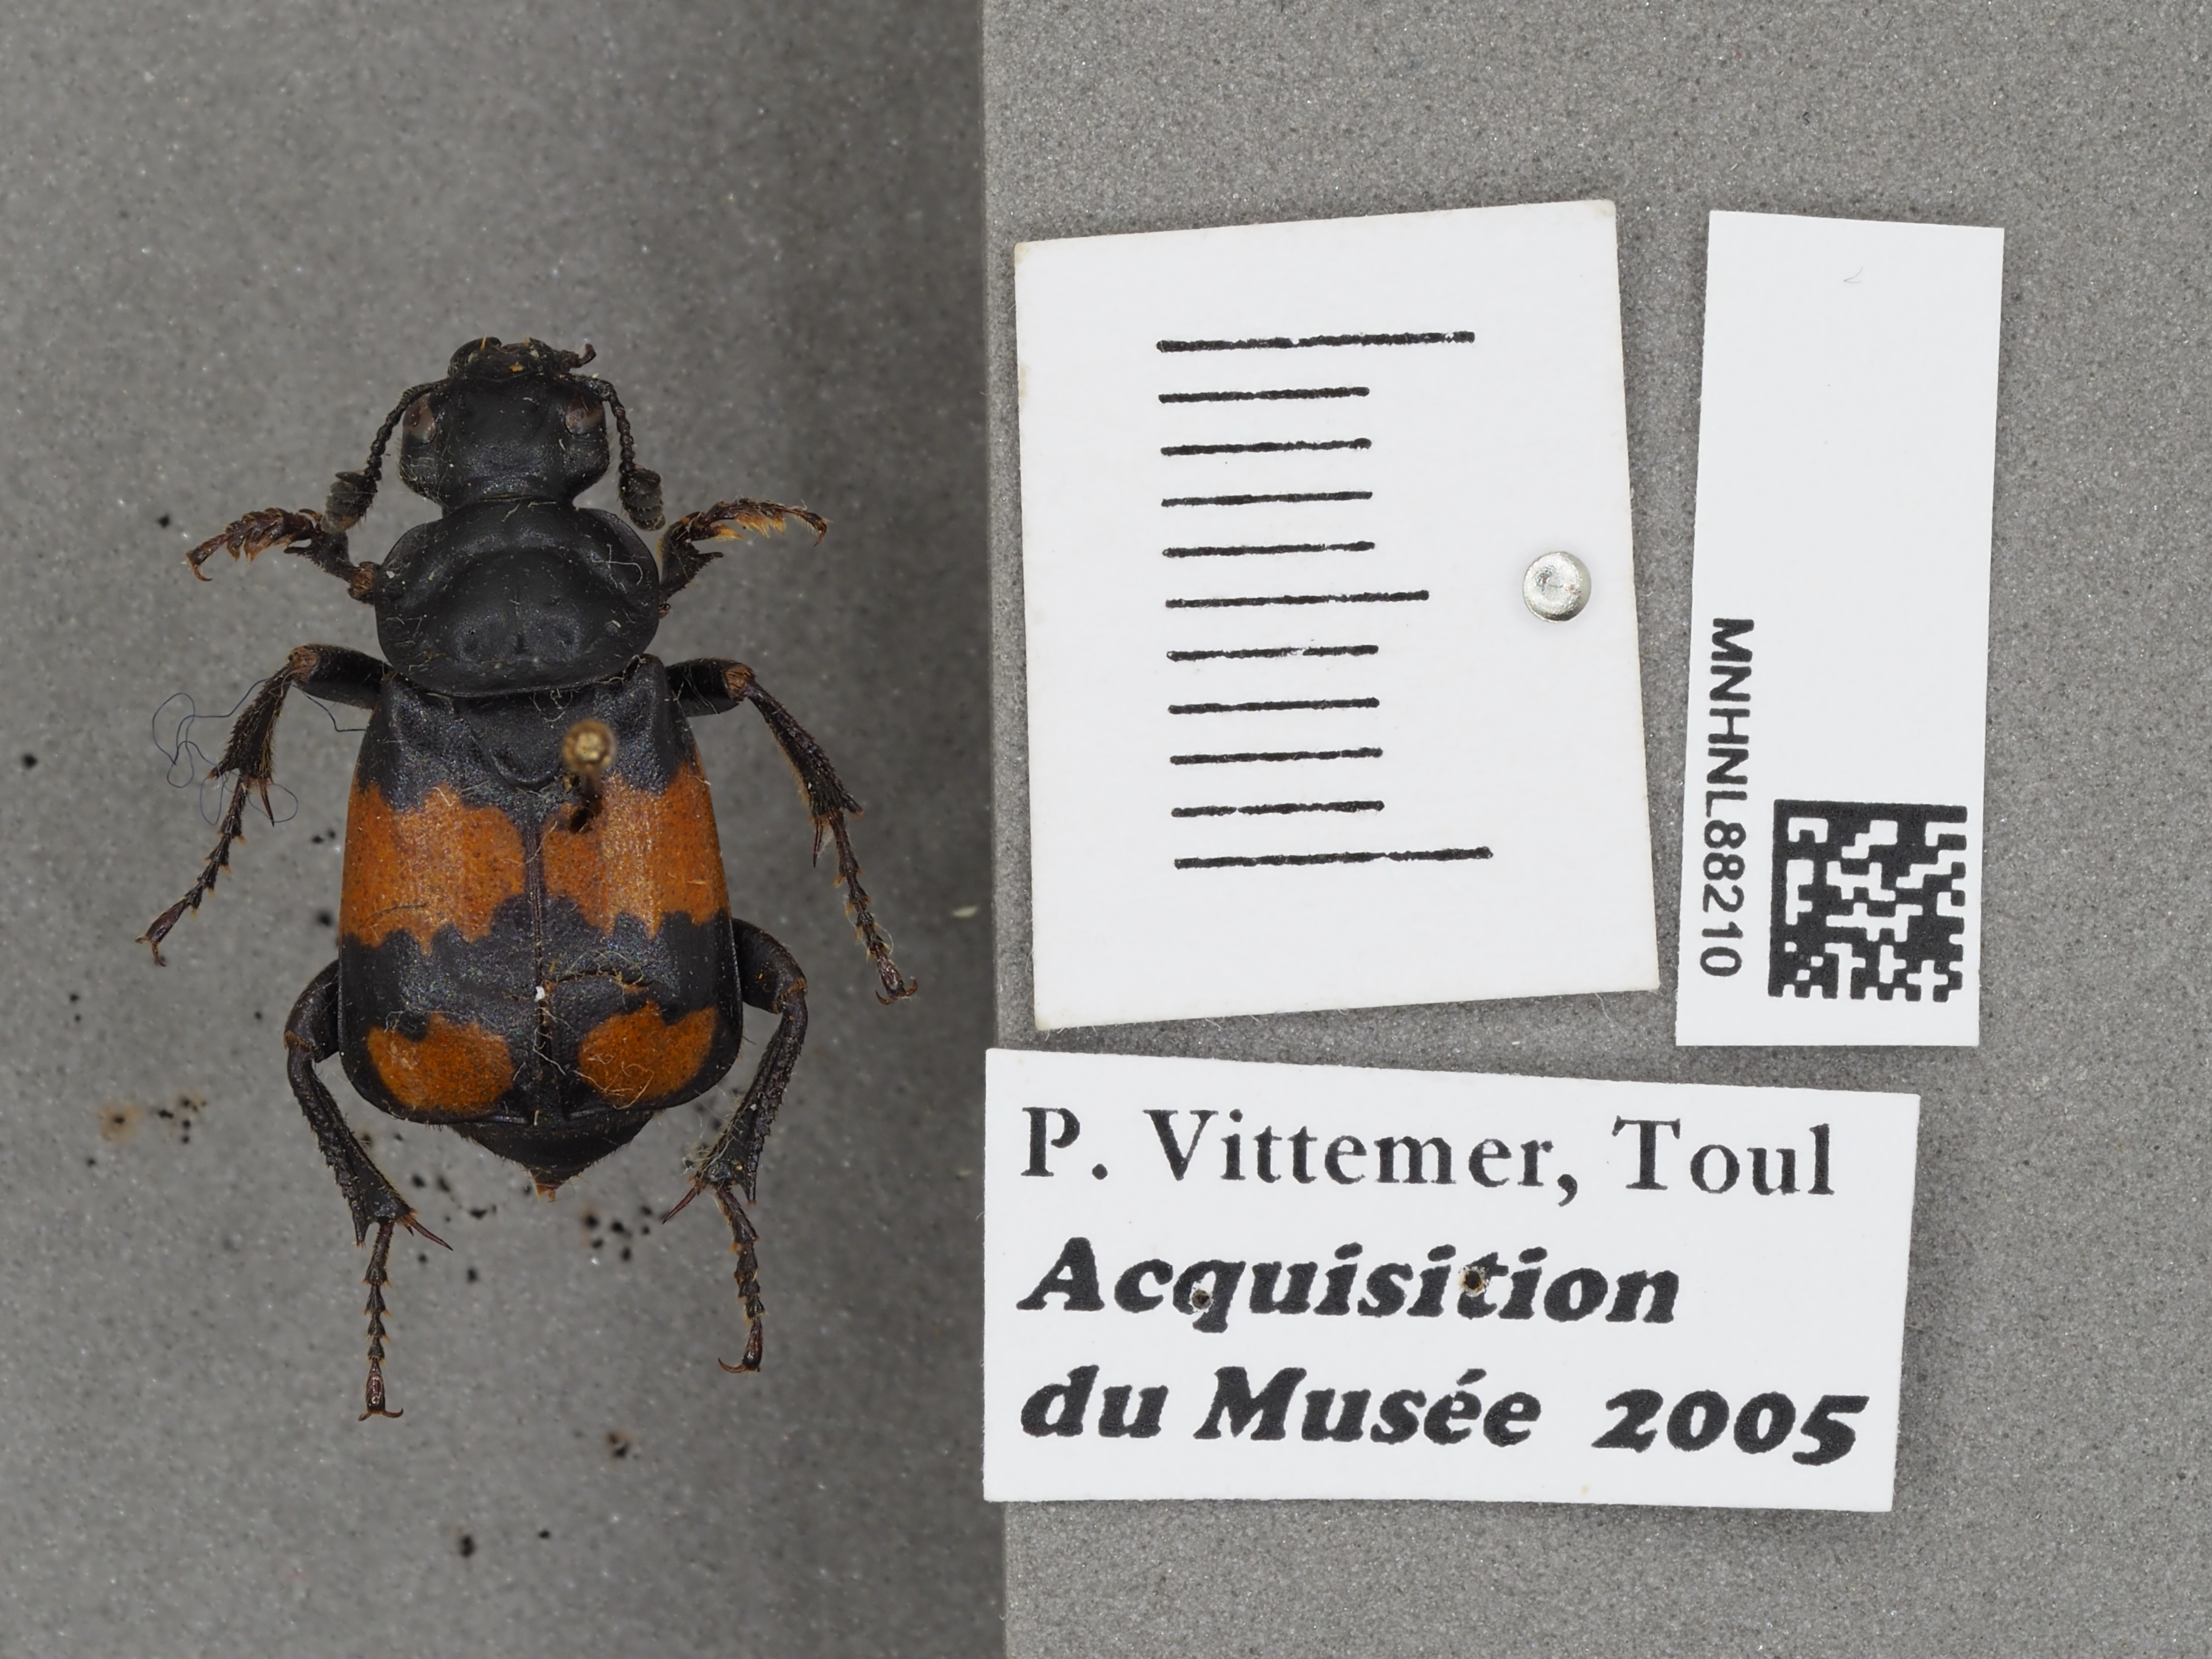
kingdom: Animalia
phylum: Arthropoda
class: Insecta
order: Coleoptera
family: Staphylinidae
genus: Nicrophorus
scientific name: Nicrophorus vespilloides
